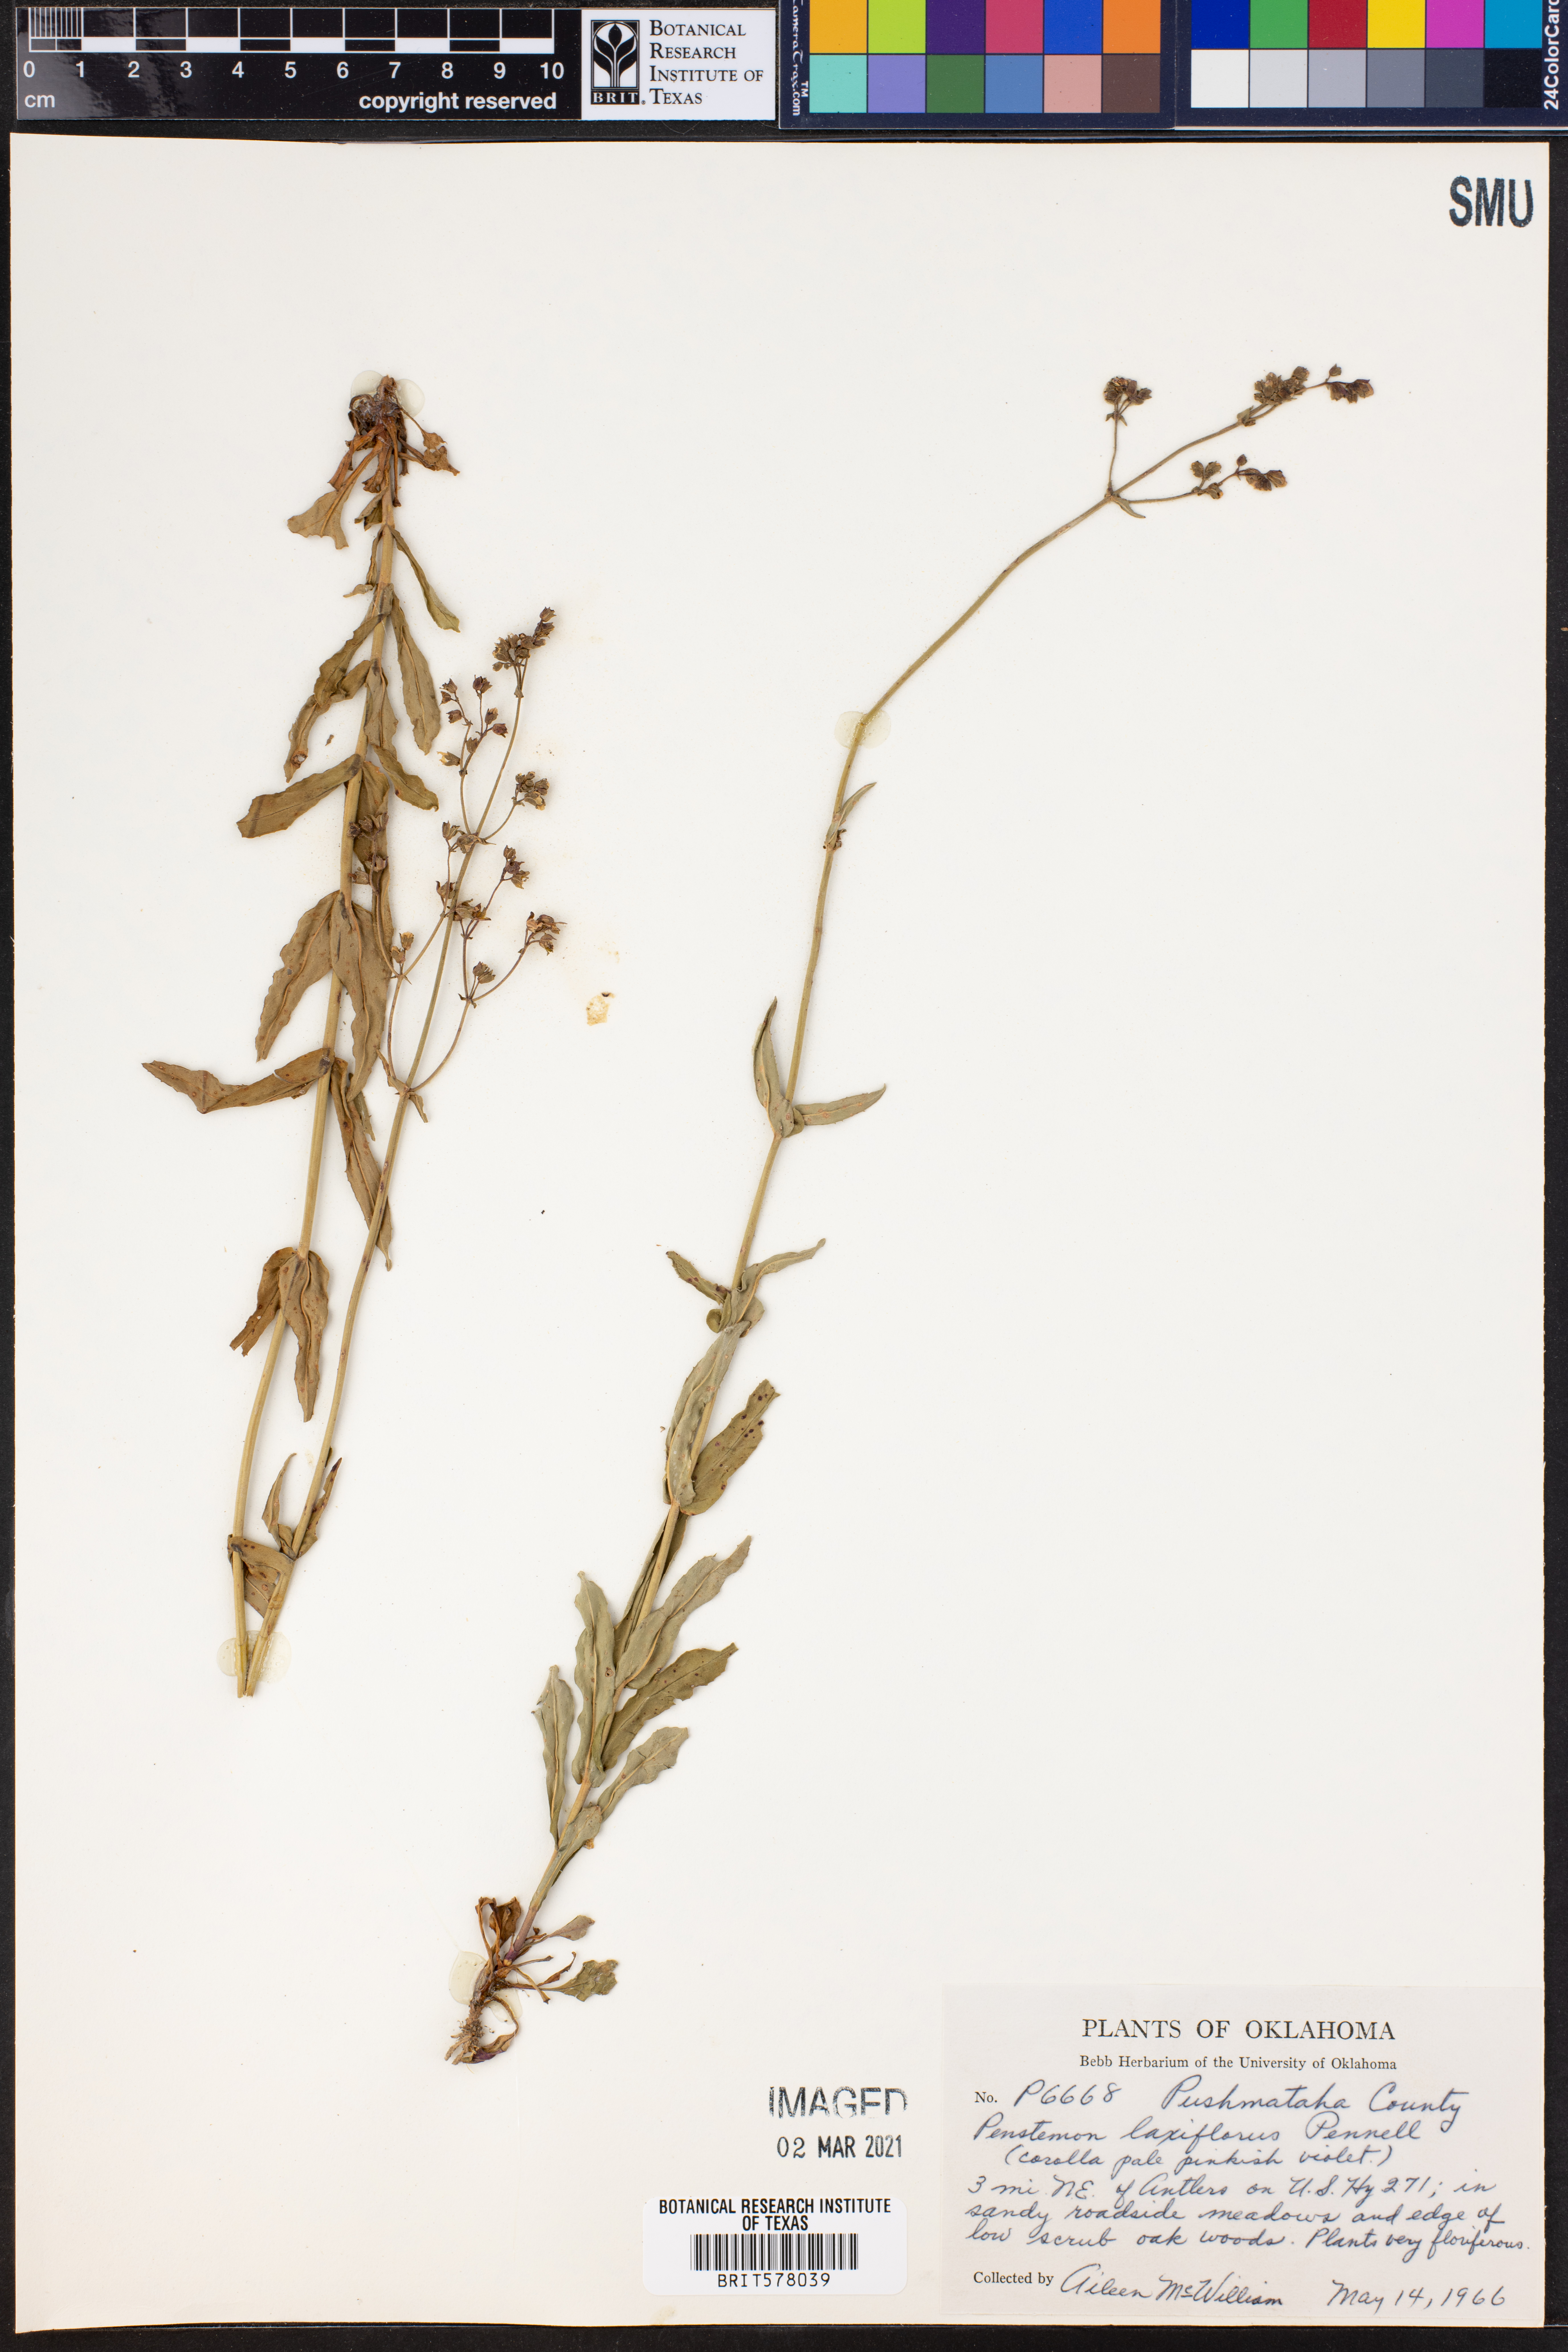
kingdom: Plantae
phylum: Tracheophyta
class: Magnoliopsida
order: Lamiales
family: Plantaginaceae
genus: Penstemon
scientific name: Penstemon laxiflorus
